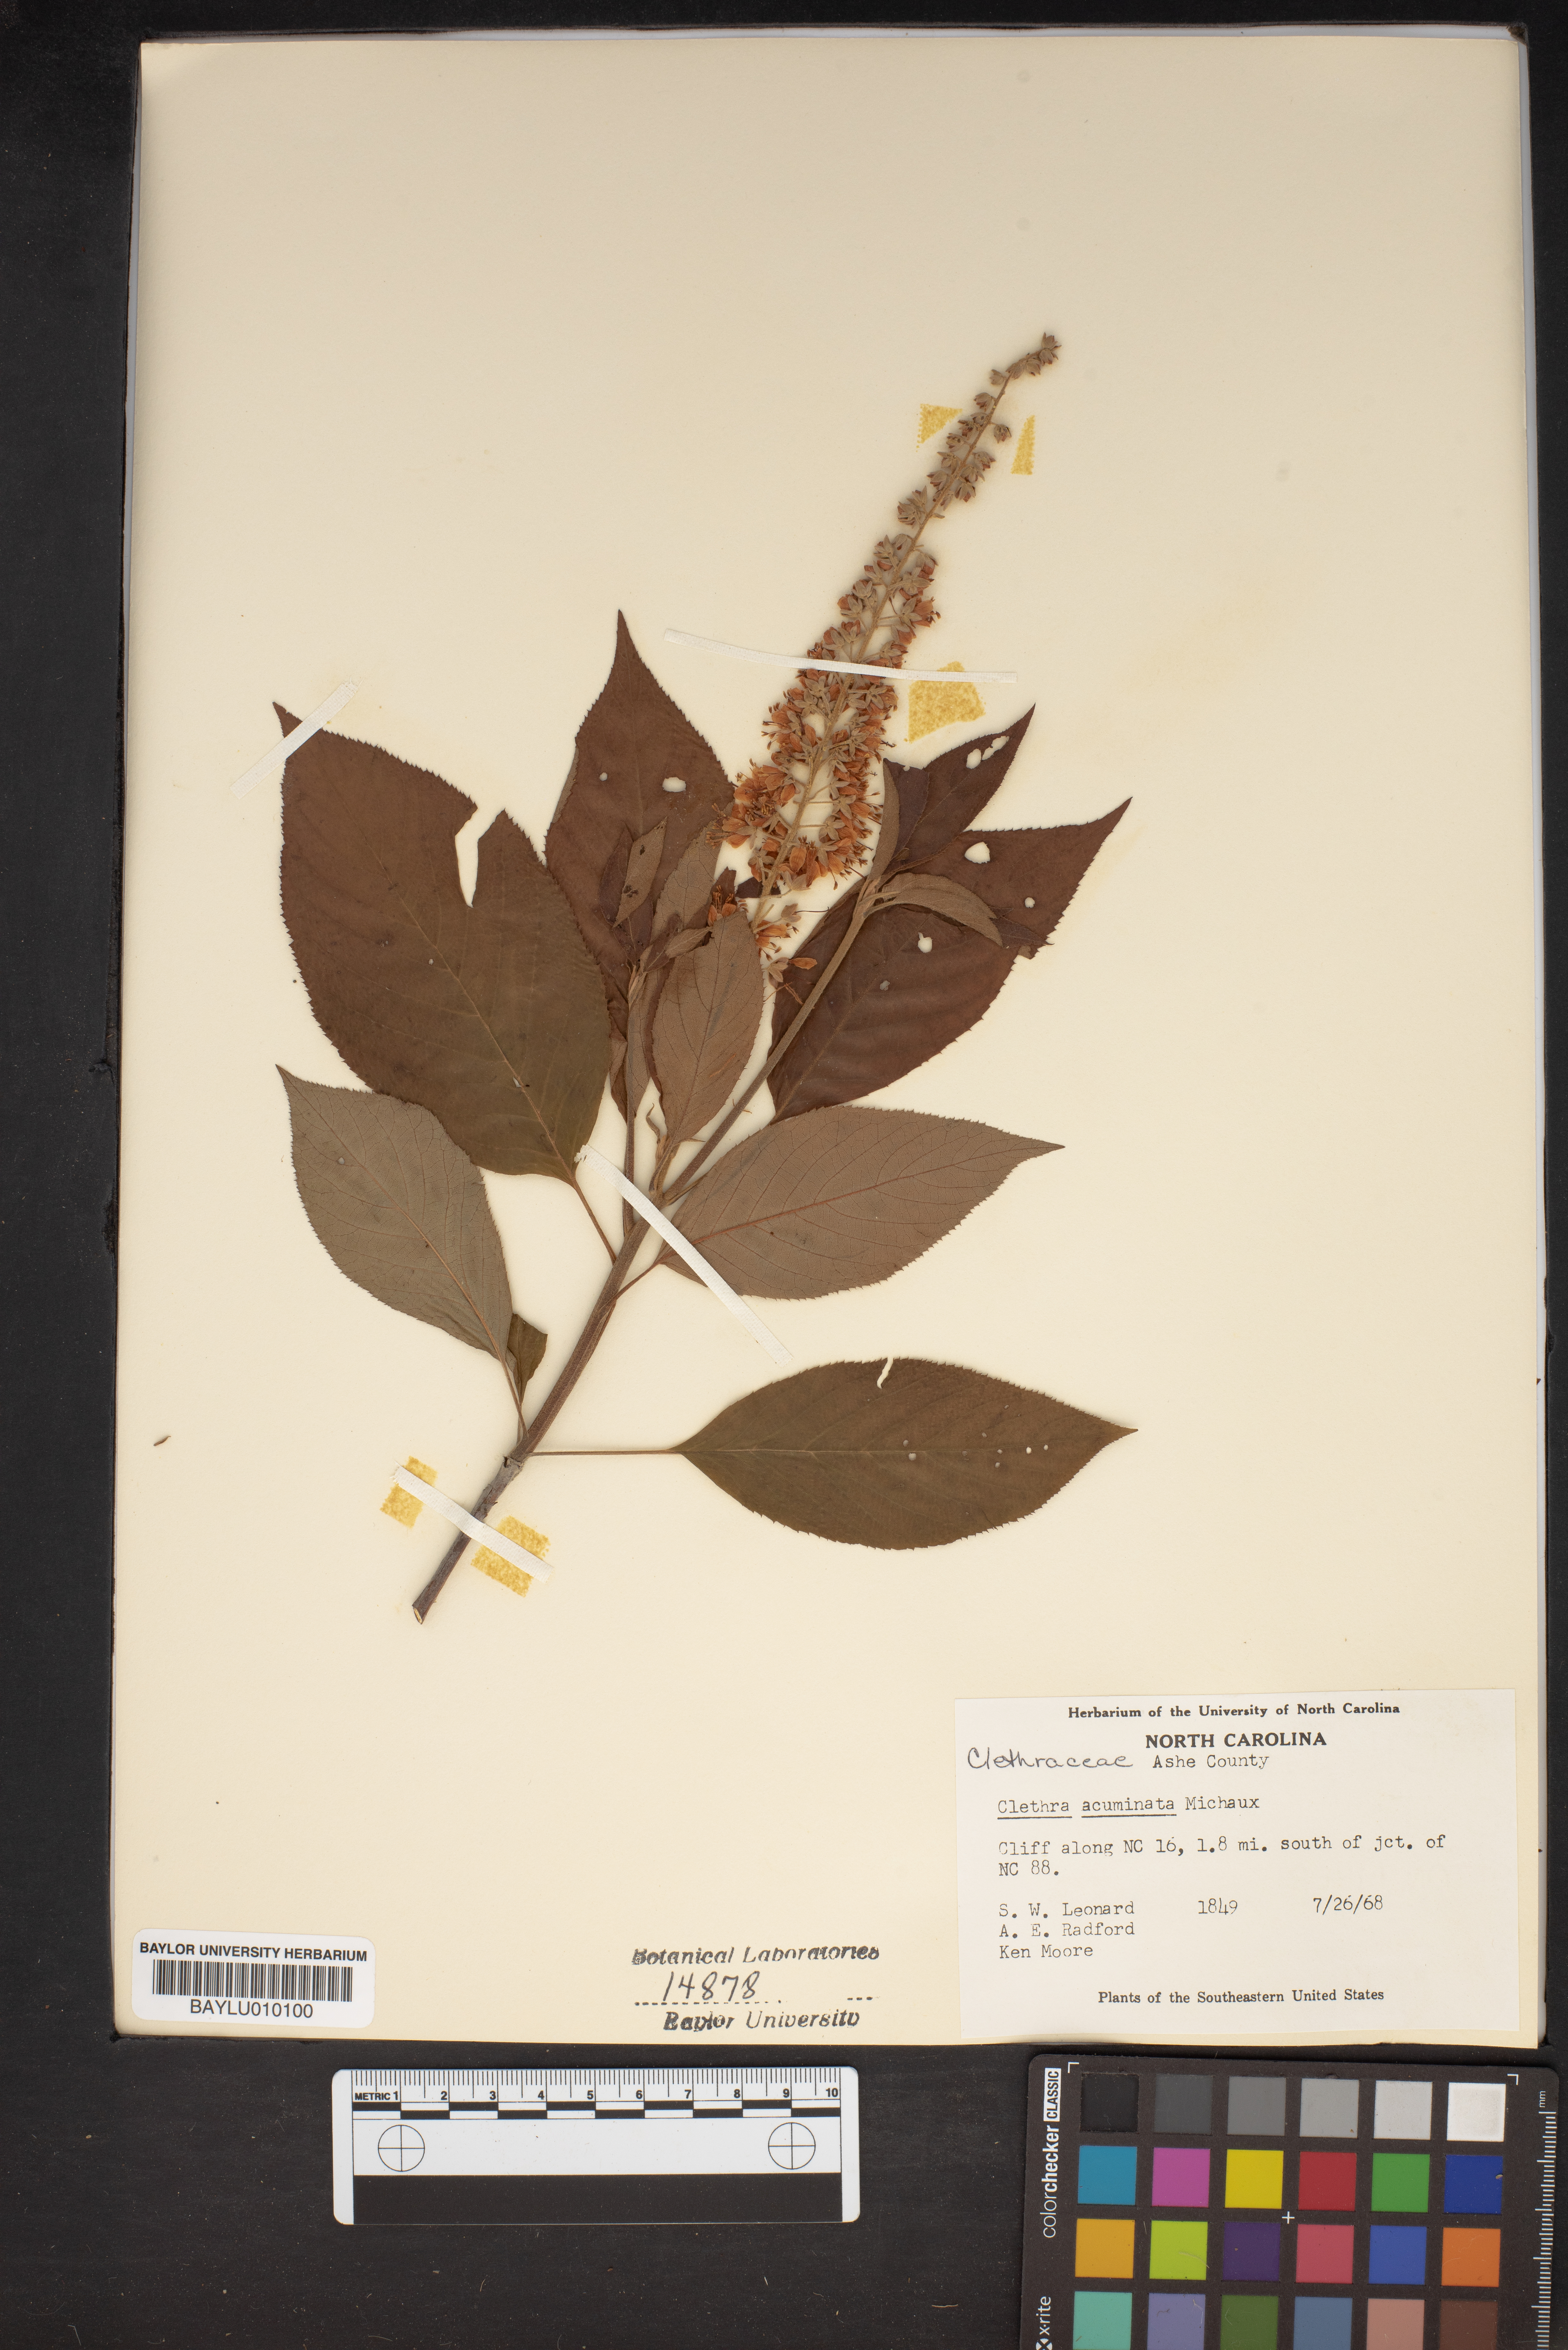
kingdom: Plantae
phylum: Tracheophyta
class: Magnoliopsida
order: Ericales
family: Clethraceae
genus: Clethra
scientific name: Clethra acuminata
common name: Mountain sweet pepperbush
